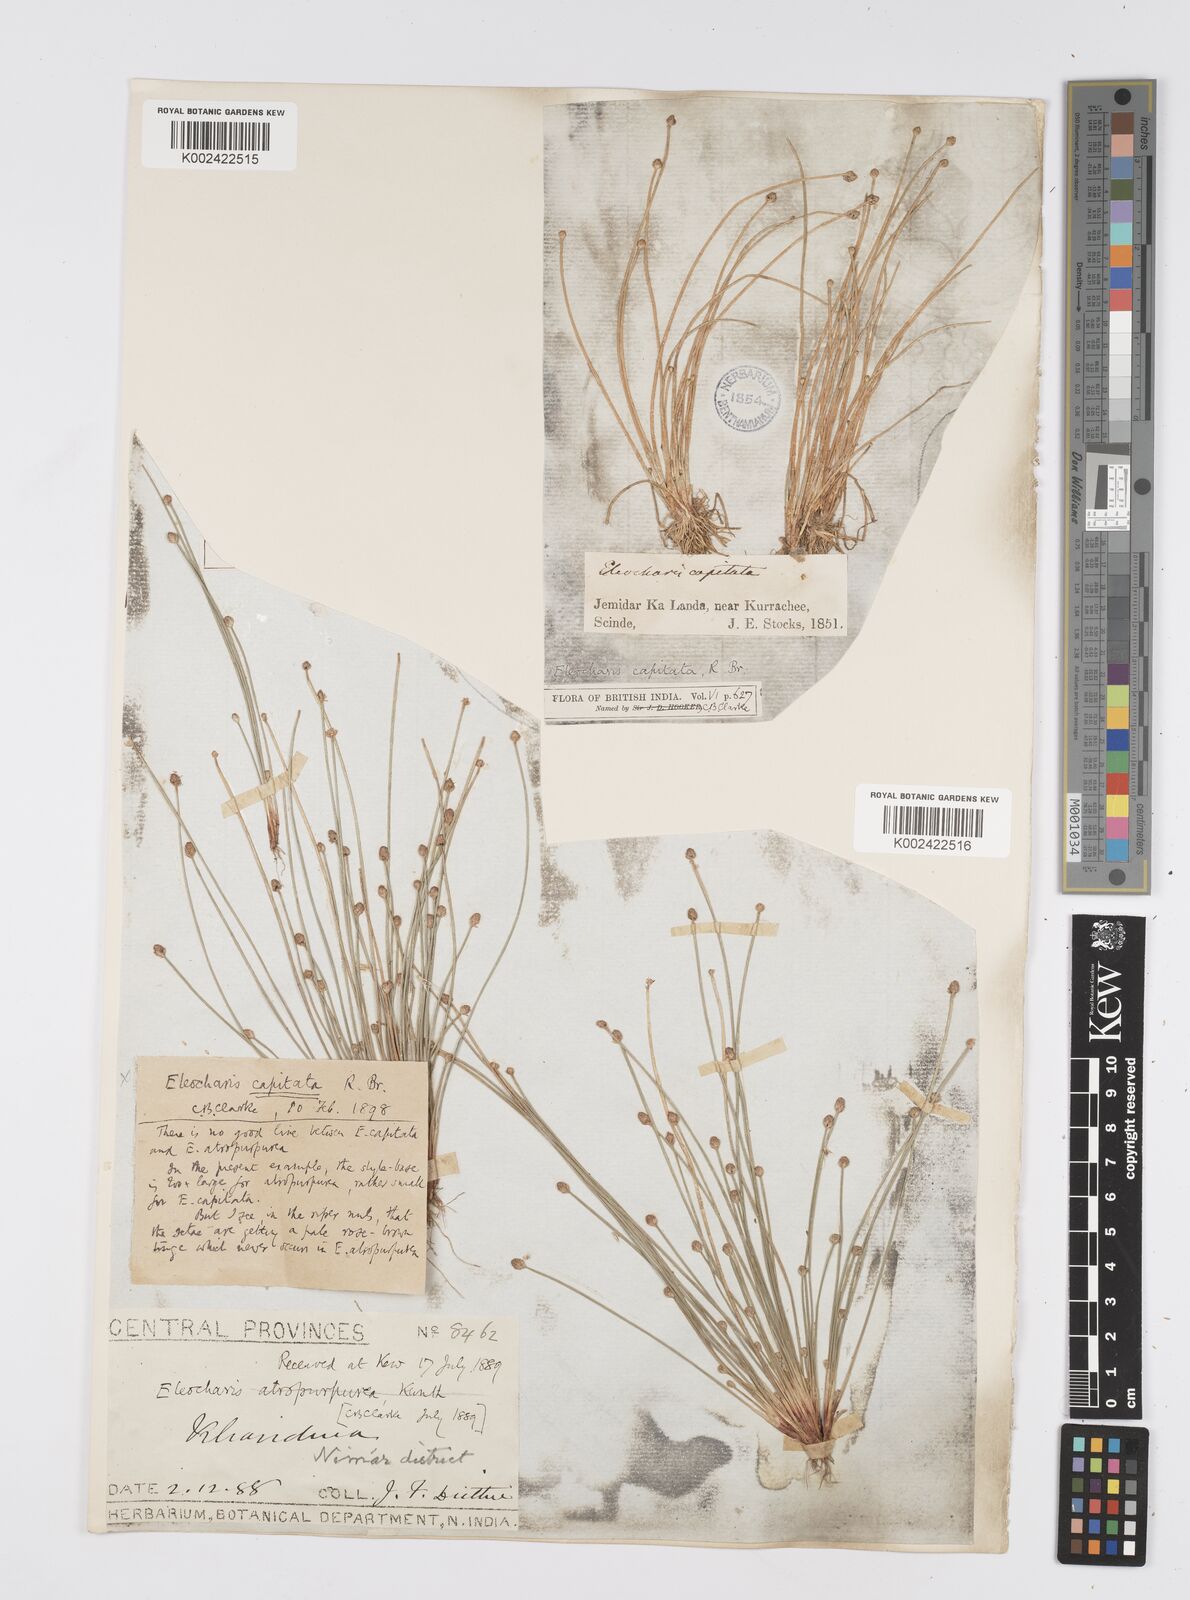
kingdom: Plantae
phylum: Tracheophyta
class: Liliopsida
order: Poales
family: Cyperaceae
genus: Eleocharis
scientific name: Eleocharis geniculata
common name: Canada spikesedge
